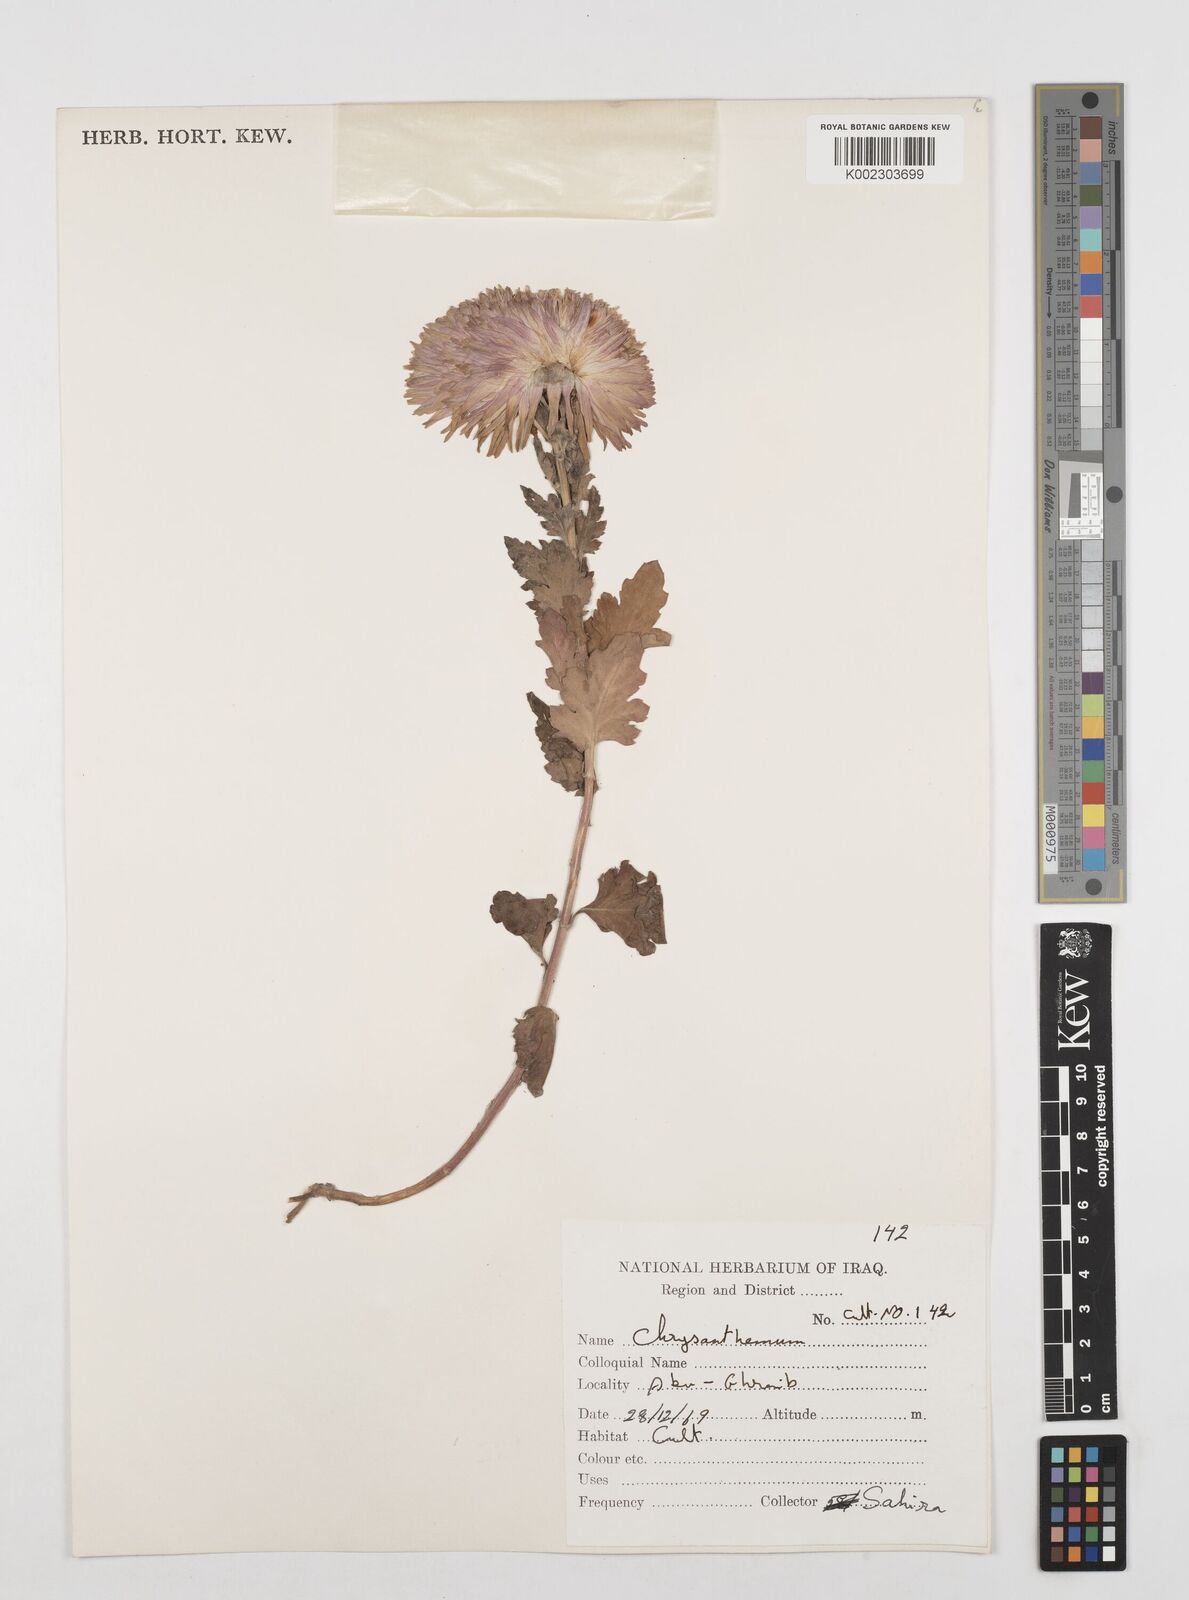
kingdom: Plantae
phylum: Tracheophyta
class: Magnoliopsida
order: Asterales
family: Asteraceae
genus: Tanacetum
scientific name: Tanacetum
